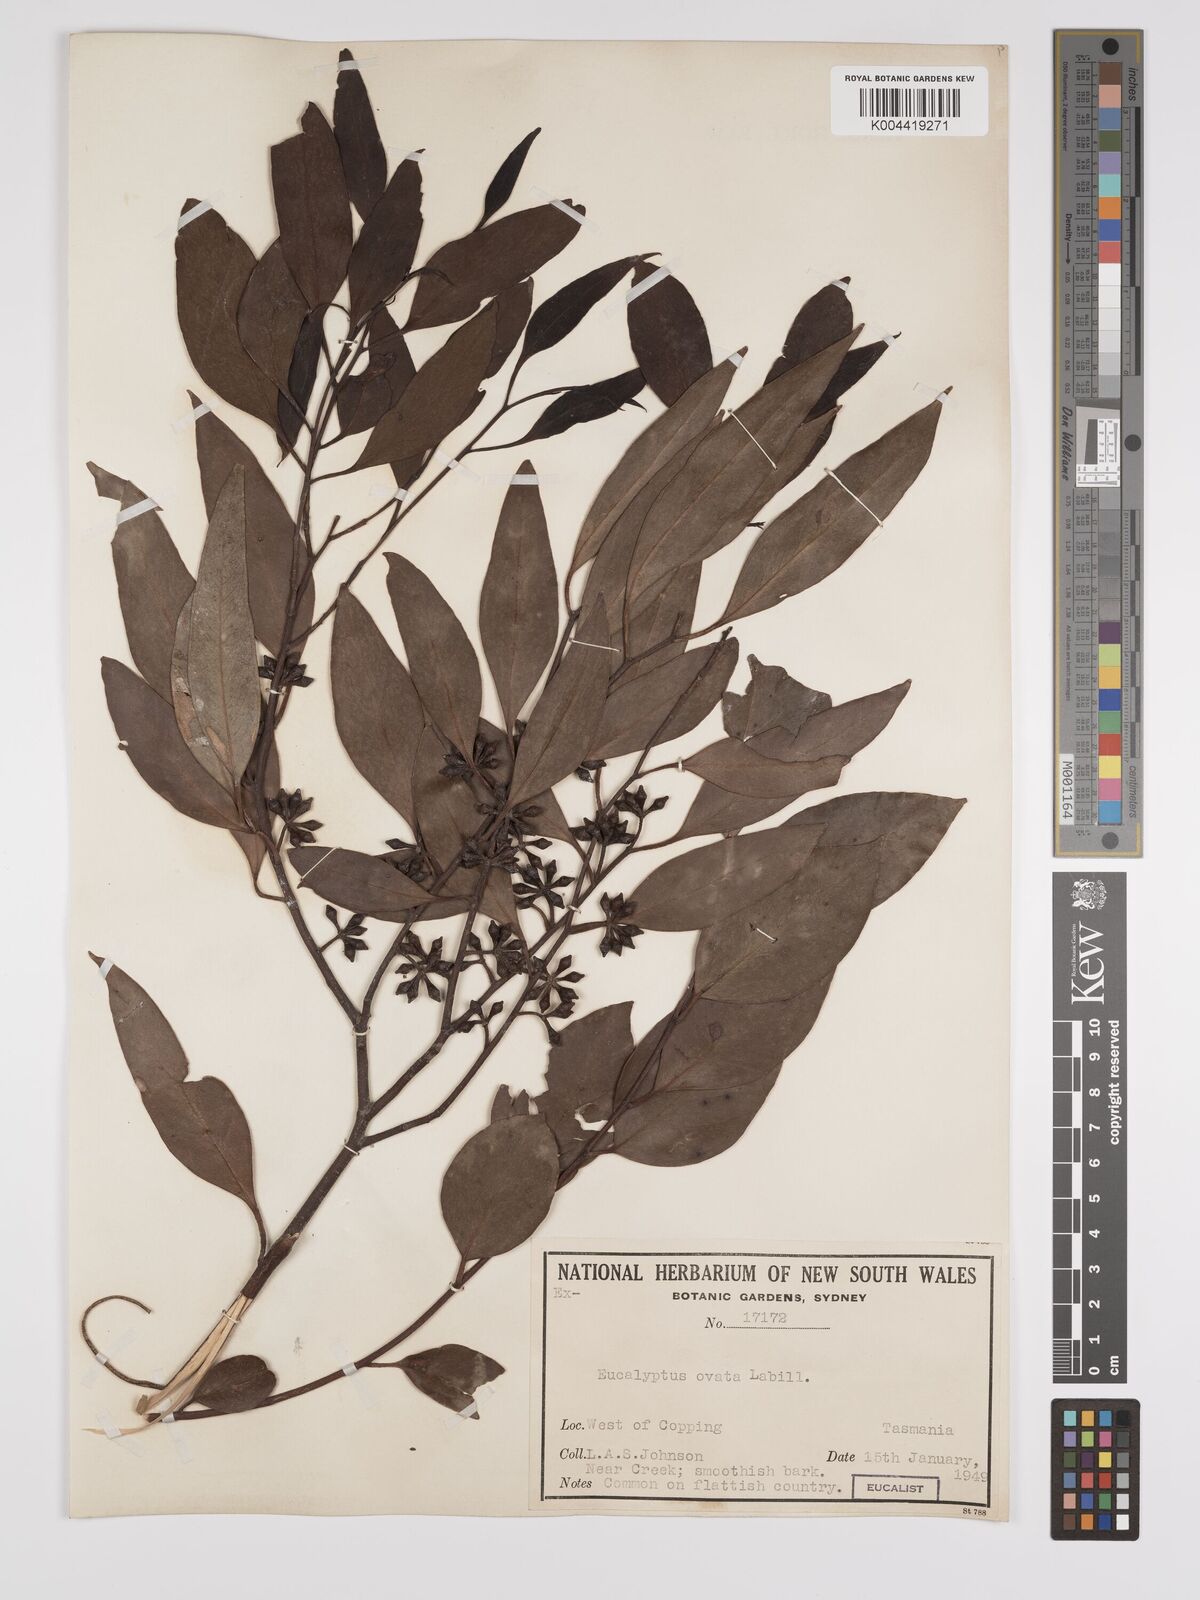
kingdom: Plantae
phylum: Tracheophyta
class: Magnoliopsida
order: Myrtales
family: Myrtaceae
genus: Eucalyptus
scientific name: Eucalyptus ovata
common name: Black-gum
